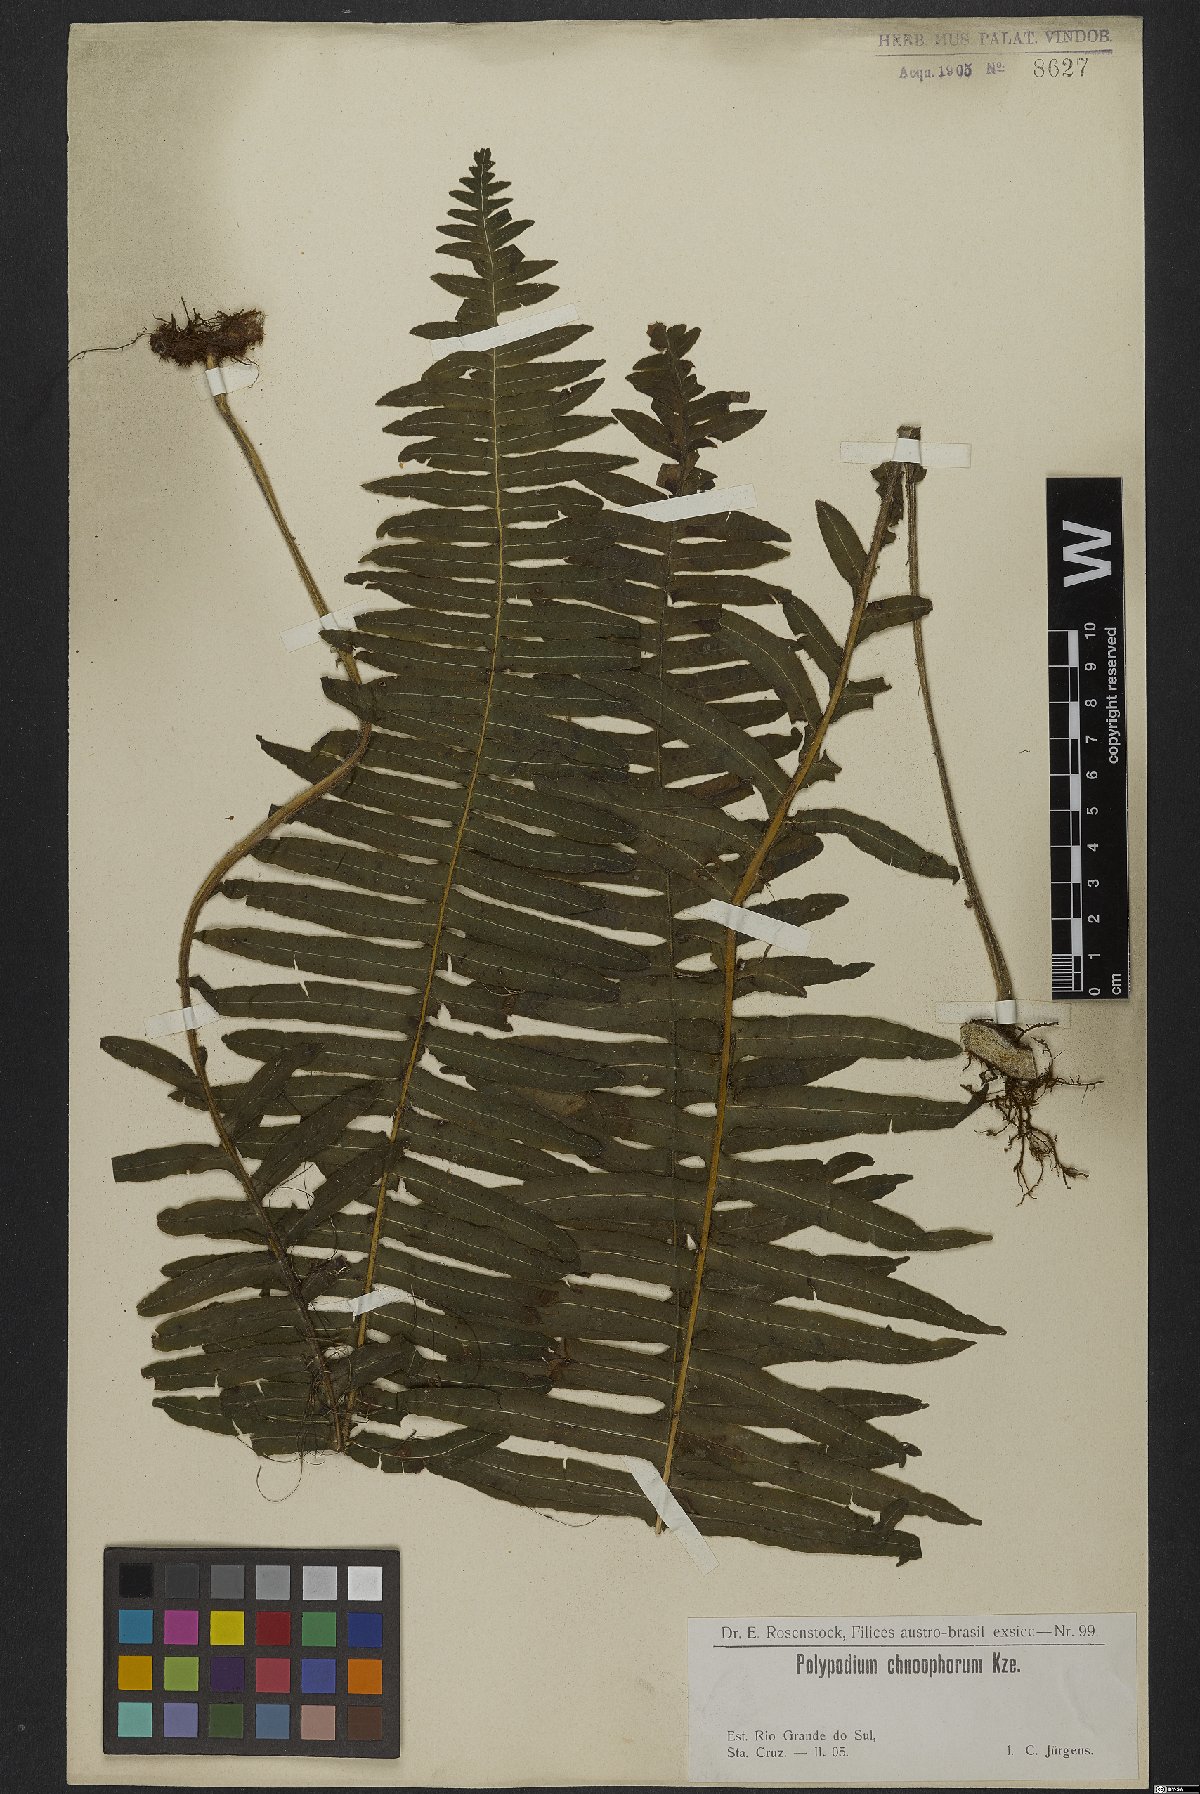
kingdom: Plantae
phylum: Tracheophyta
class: Polypodiopsida
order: Polypodiales
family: Polypodiaceae
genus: Pecluma
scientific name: Pecluma chnoophora
